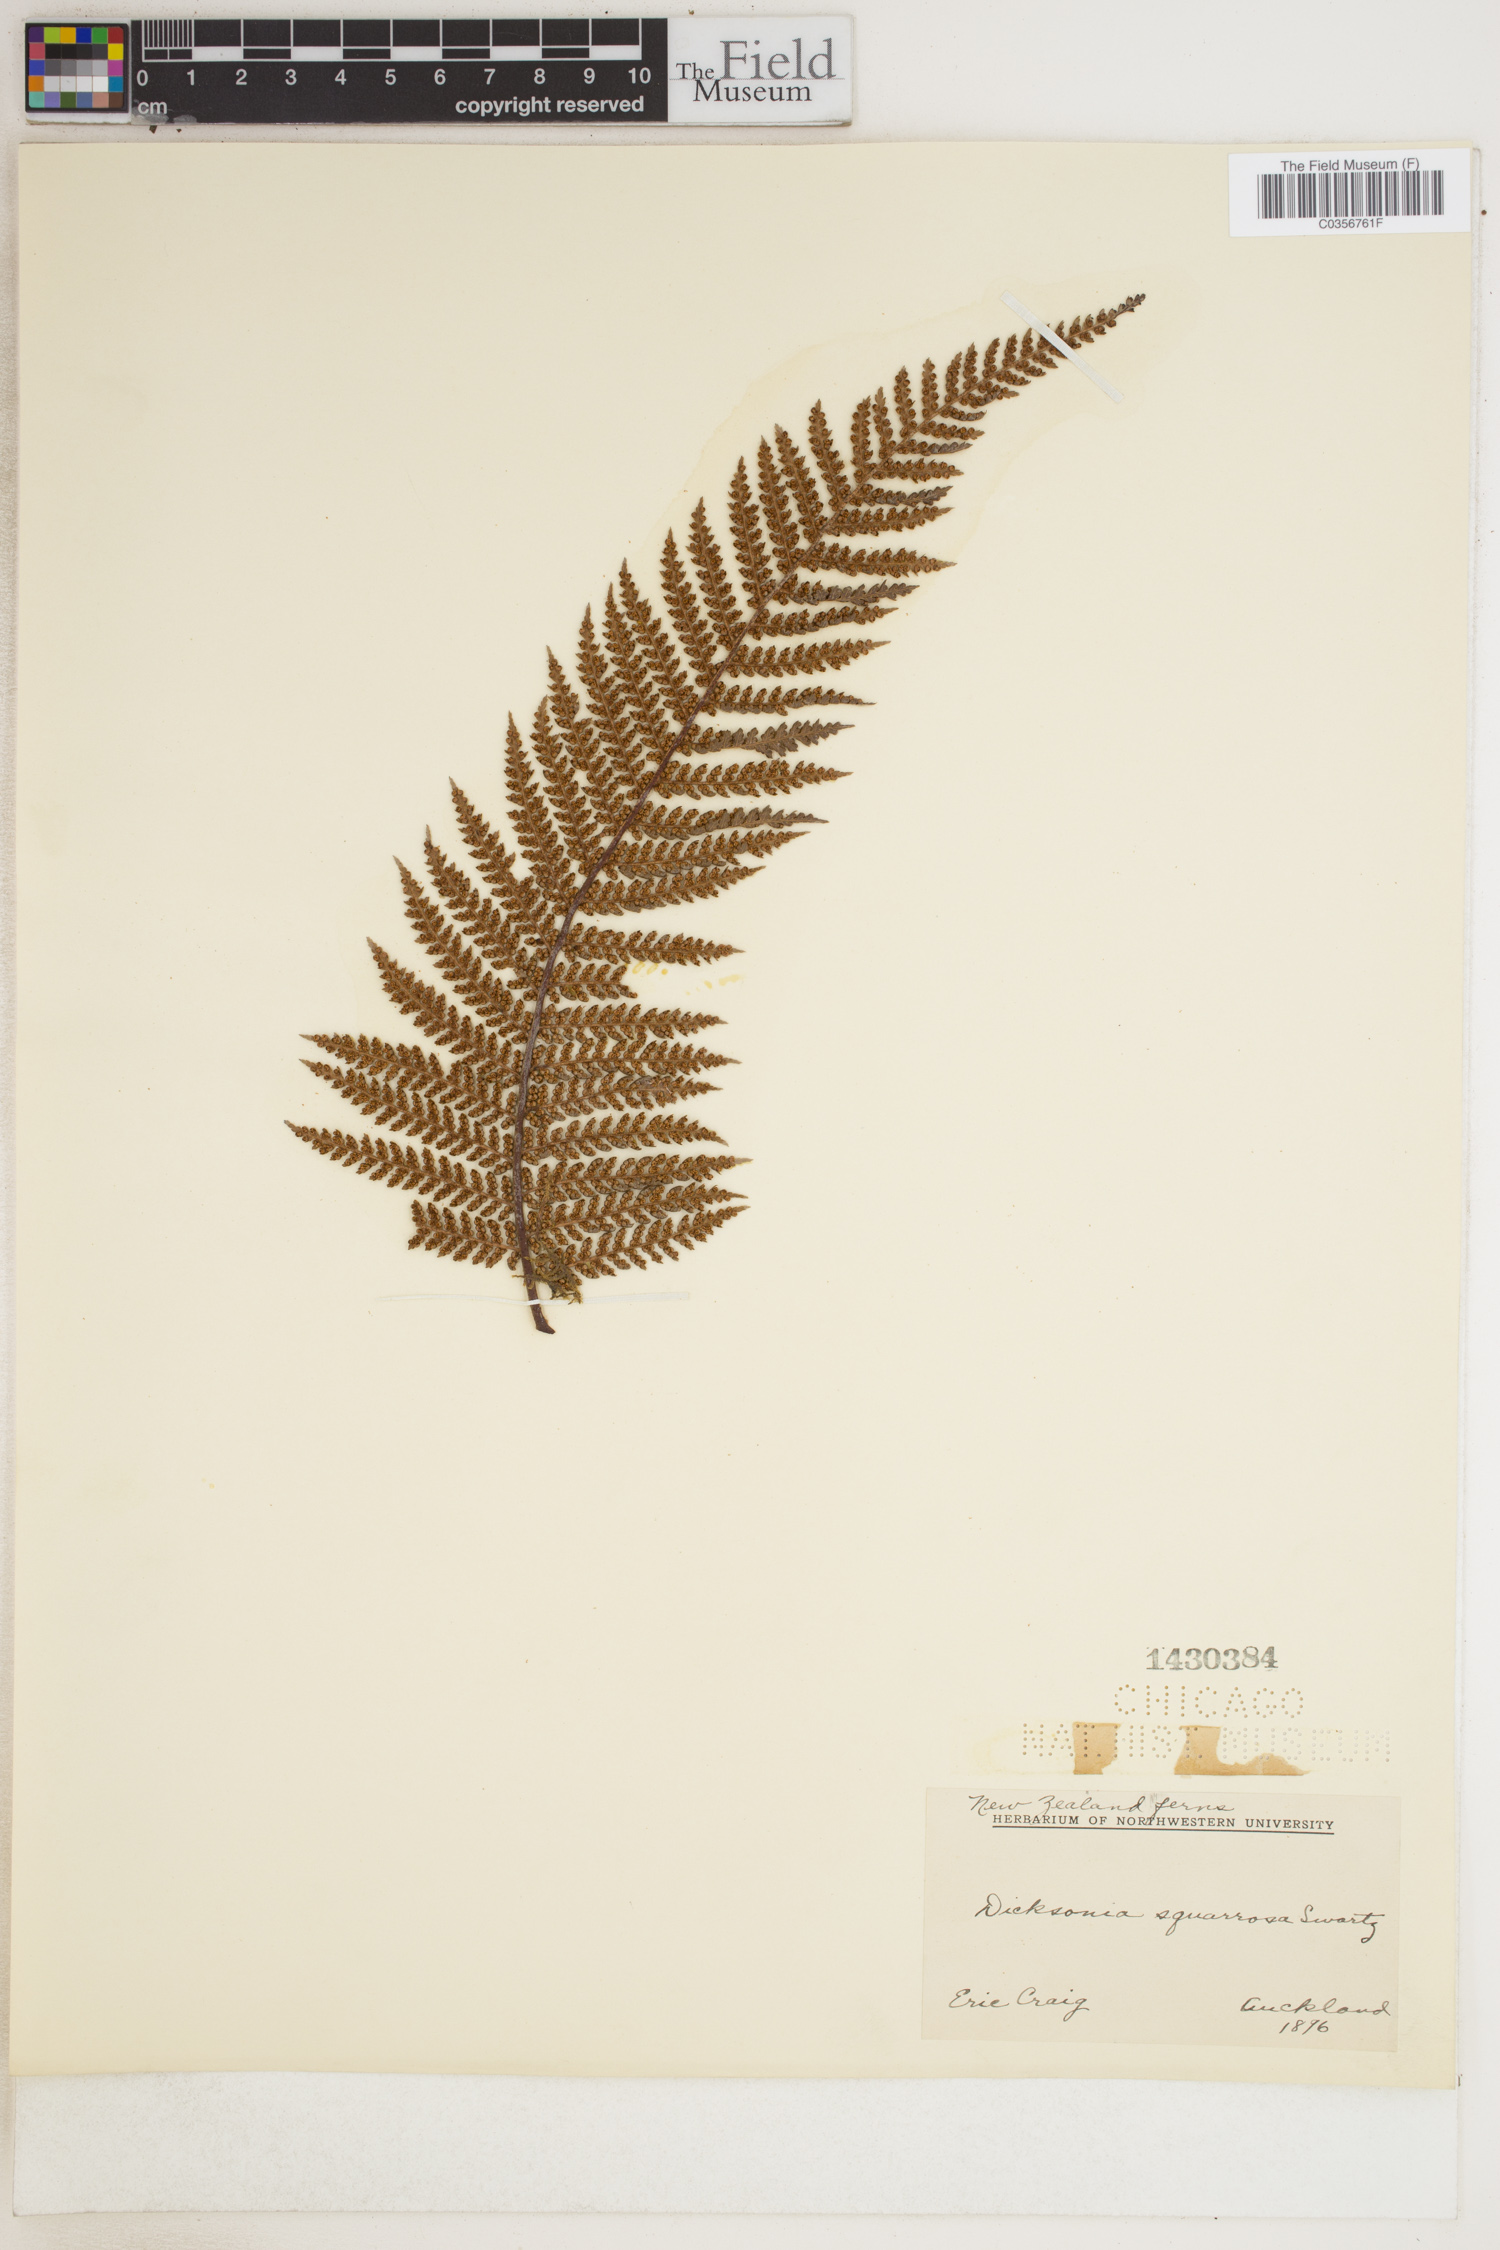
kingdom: Plantae
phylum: Tracheophyta
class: Polypodiopsida
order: Cyatheales
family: Dicksoniaceae
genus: Dicksonia
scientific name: Dicksonia squarrosa
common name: Hard treefern
